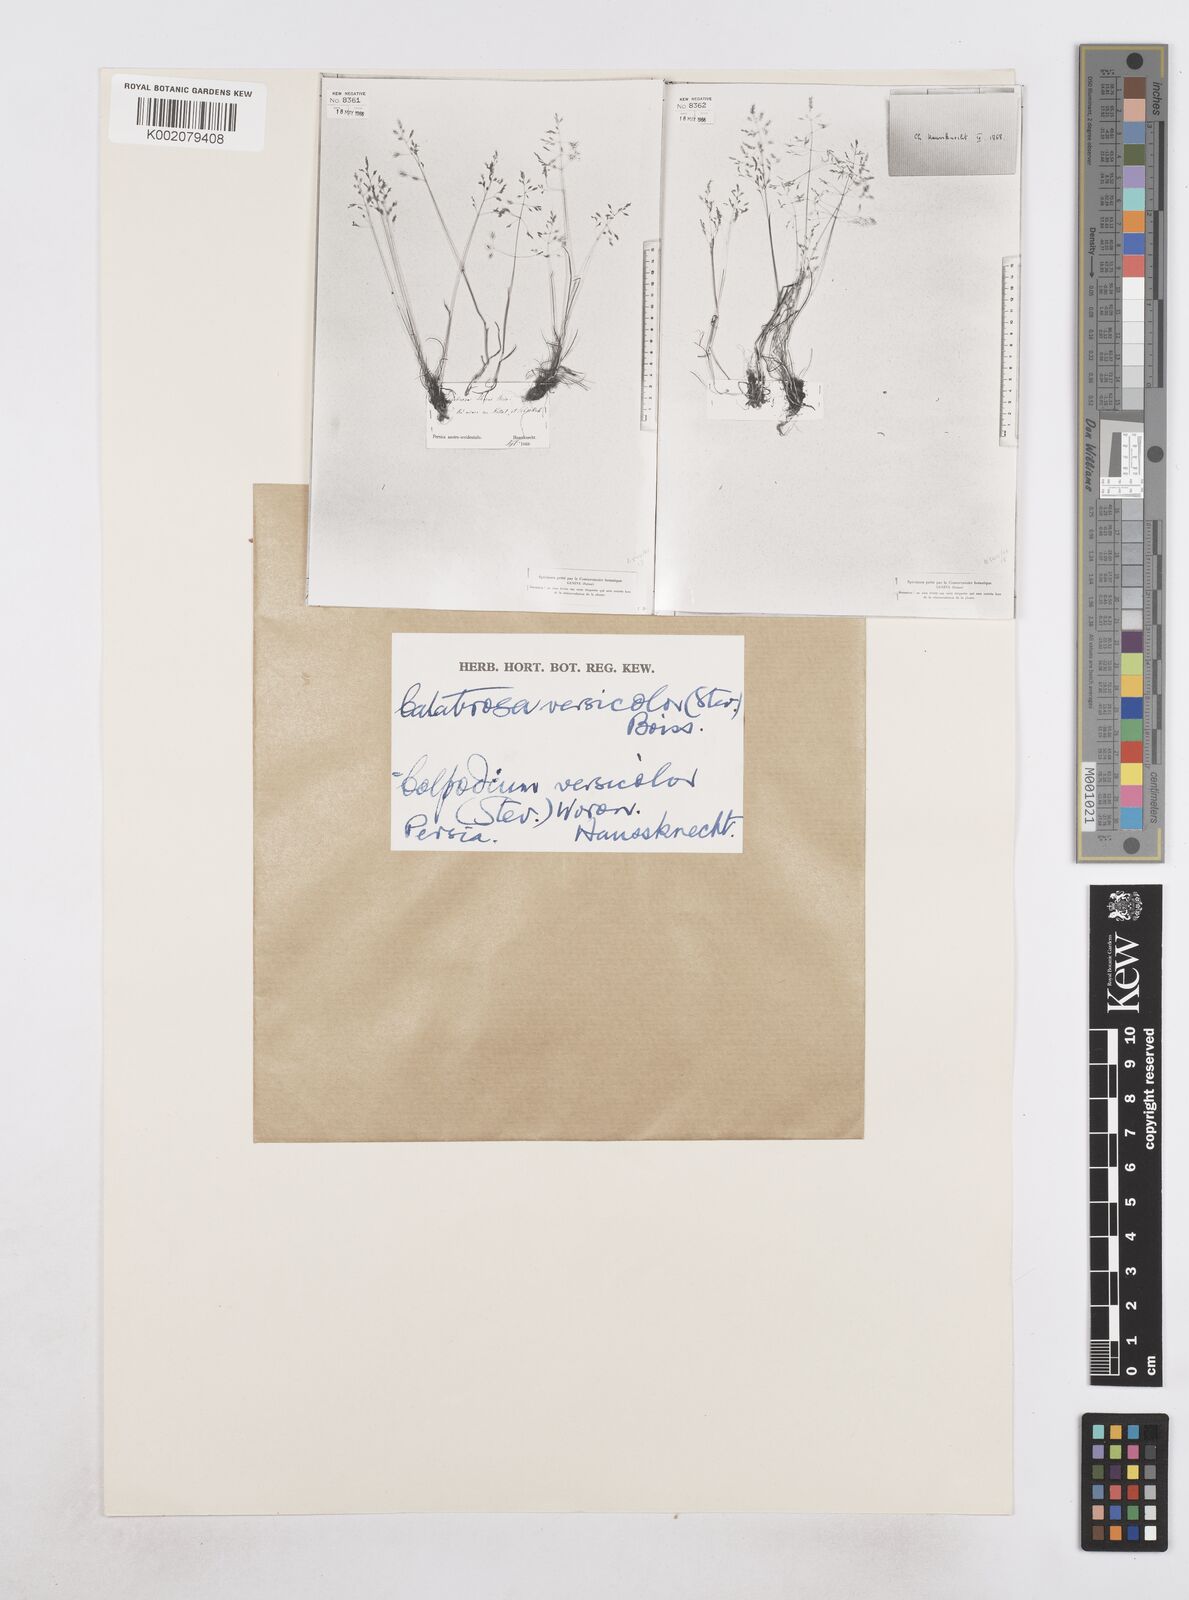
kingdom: Plantae
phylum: Tracheophyta
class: Liliopsida
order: Poales
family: Poaceae
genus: Colpodium
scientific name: Colpodium versicolor
